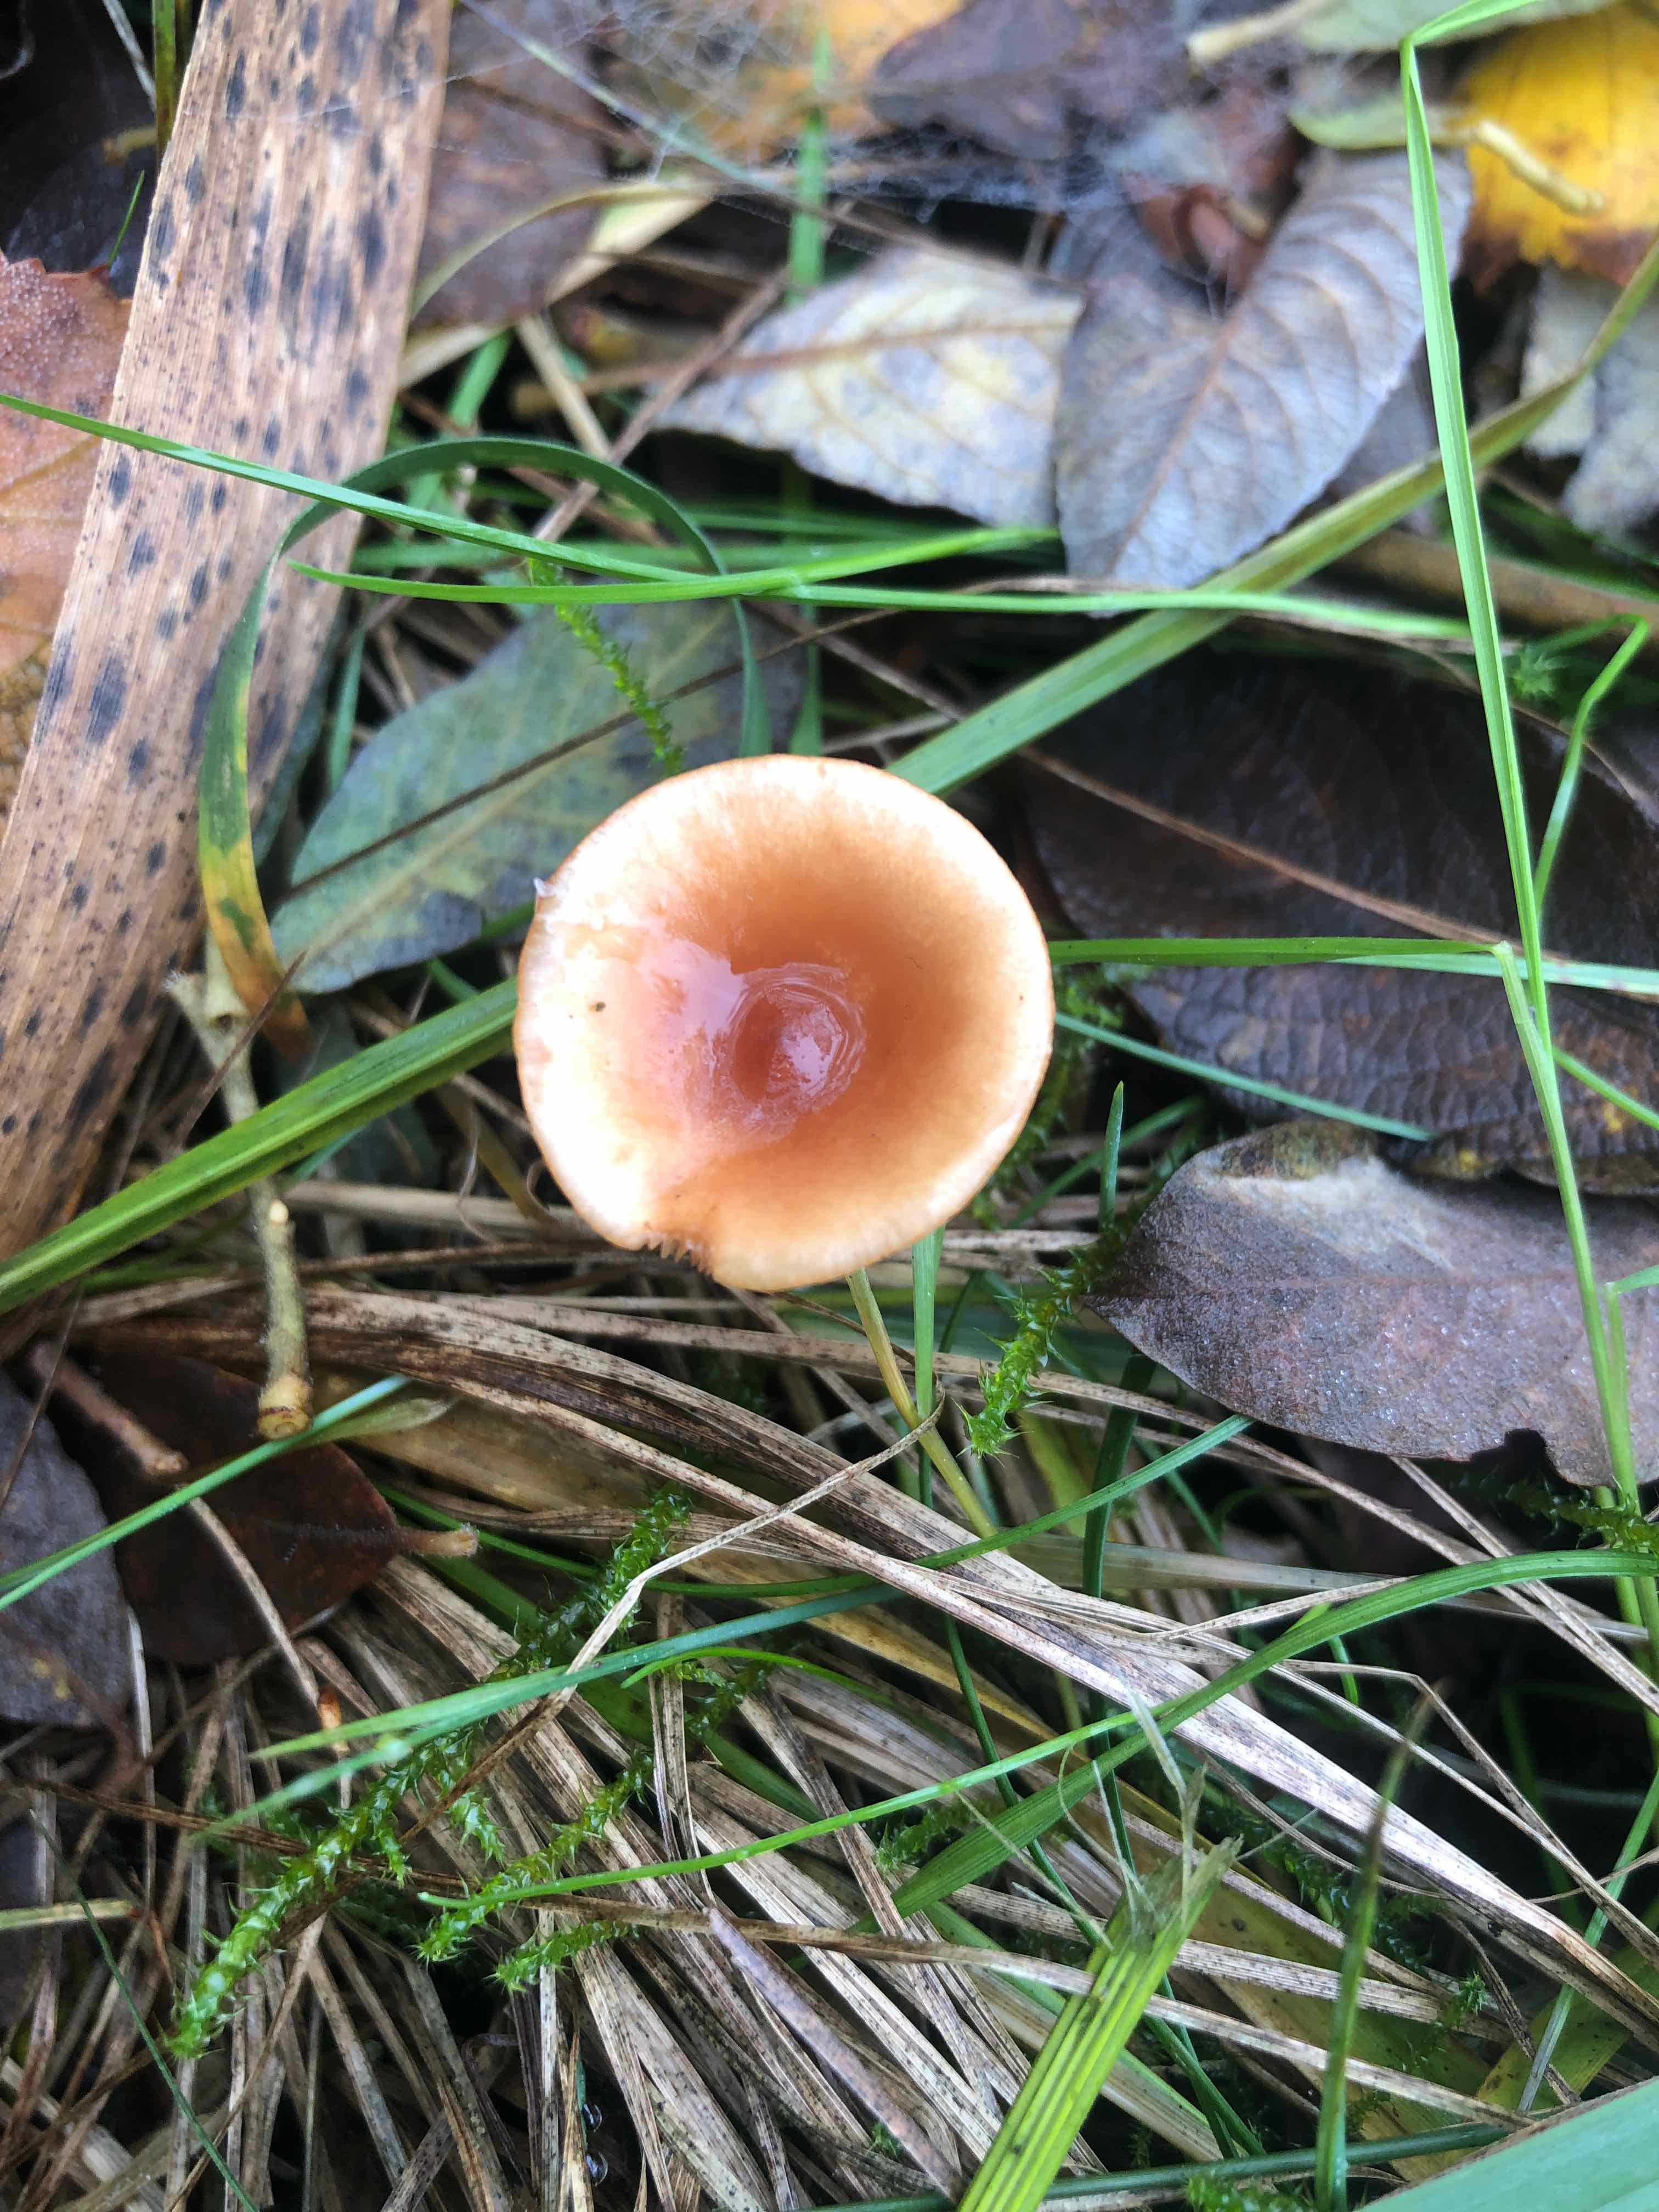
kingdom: Fungi
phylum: Basidiomycota
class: Agaricomycetes
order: Russulales
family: Russulaceae
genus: Lactarius
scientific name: Lactarius tabidus
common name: rynket mælkehat
